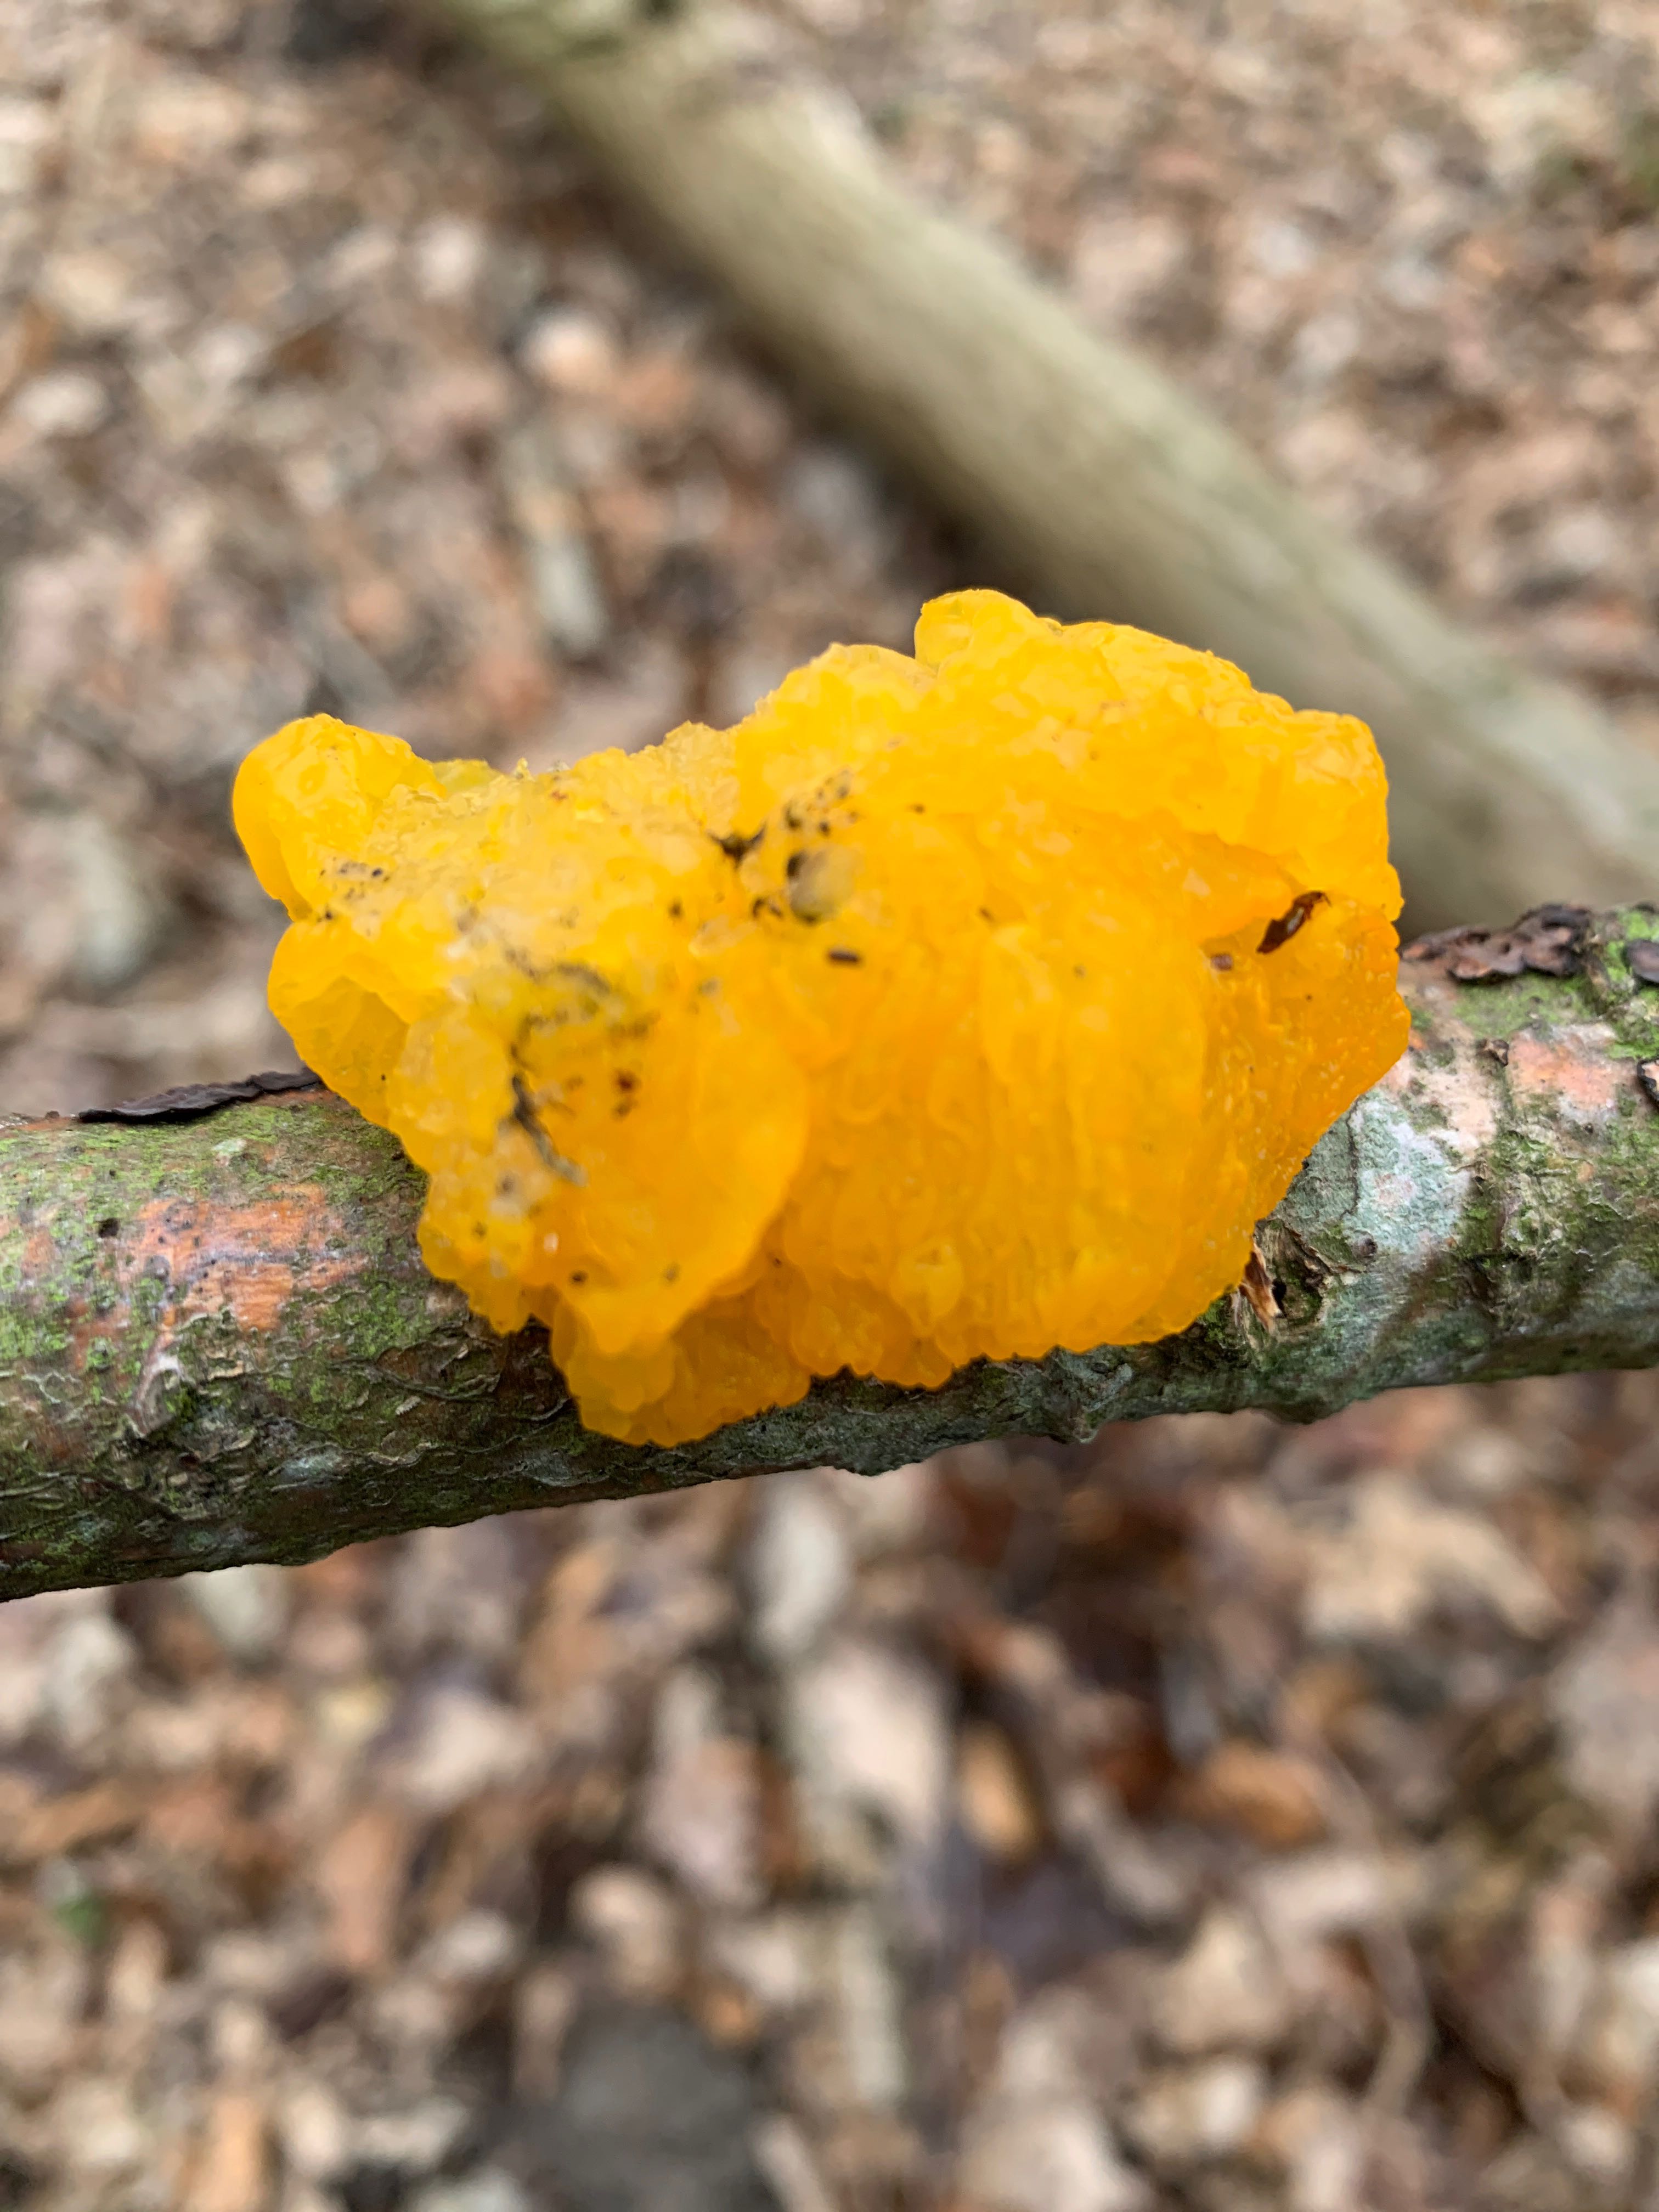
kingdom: Fungi
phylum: Basidiomycota
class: Tremellomycetes
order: Tremellales
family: Tremellaceae
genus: Tremella
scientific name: Tremella mesenterica
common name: gul bævresvamp
